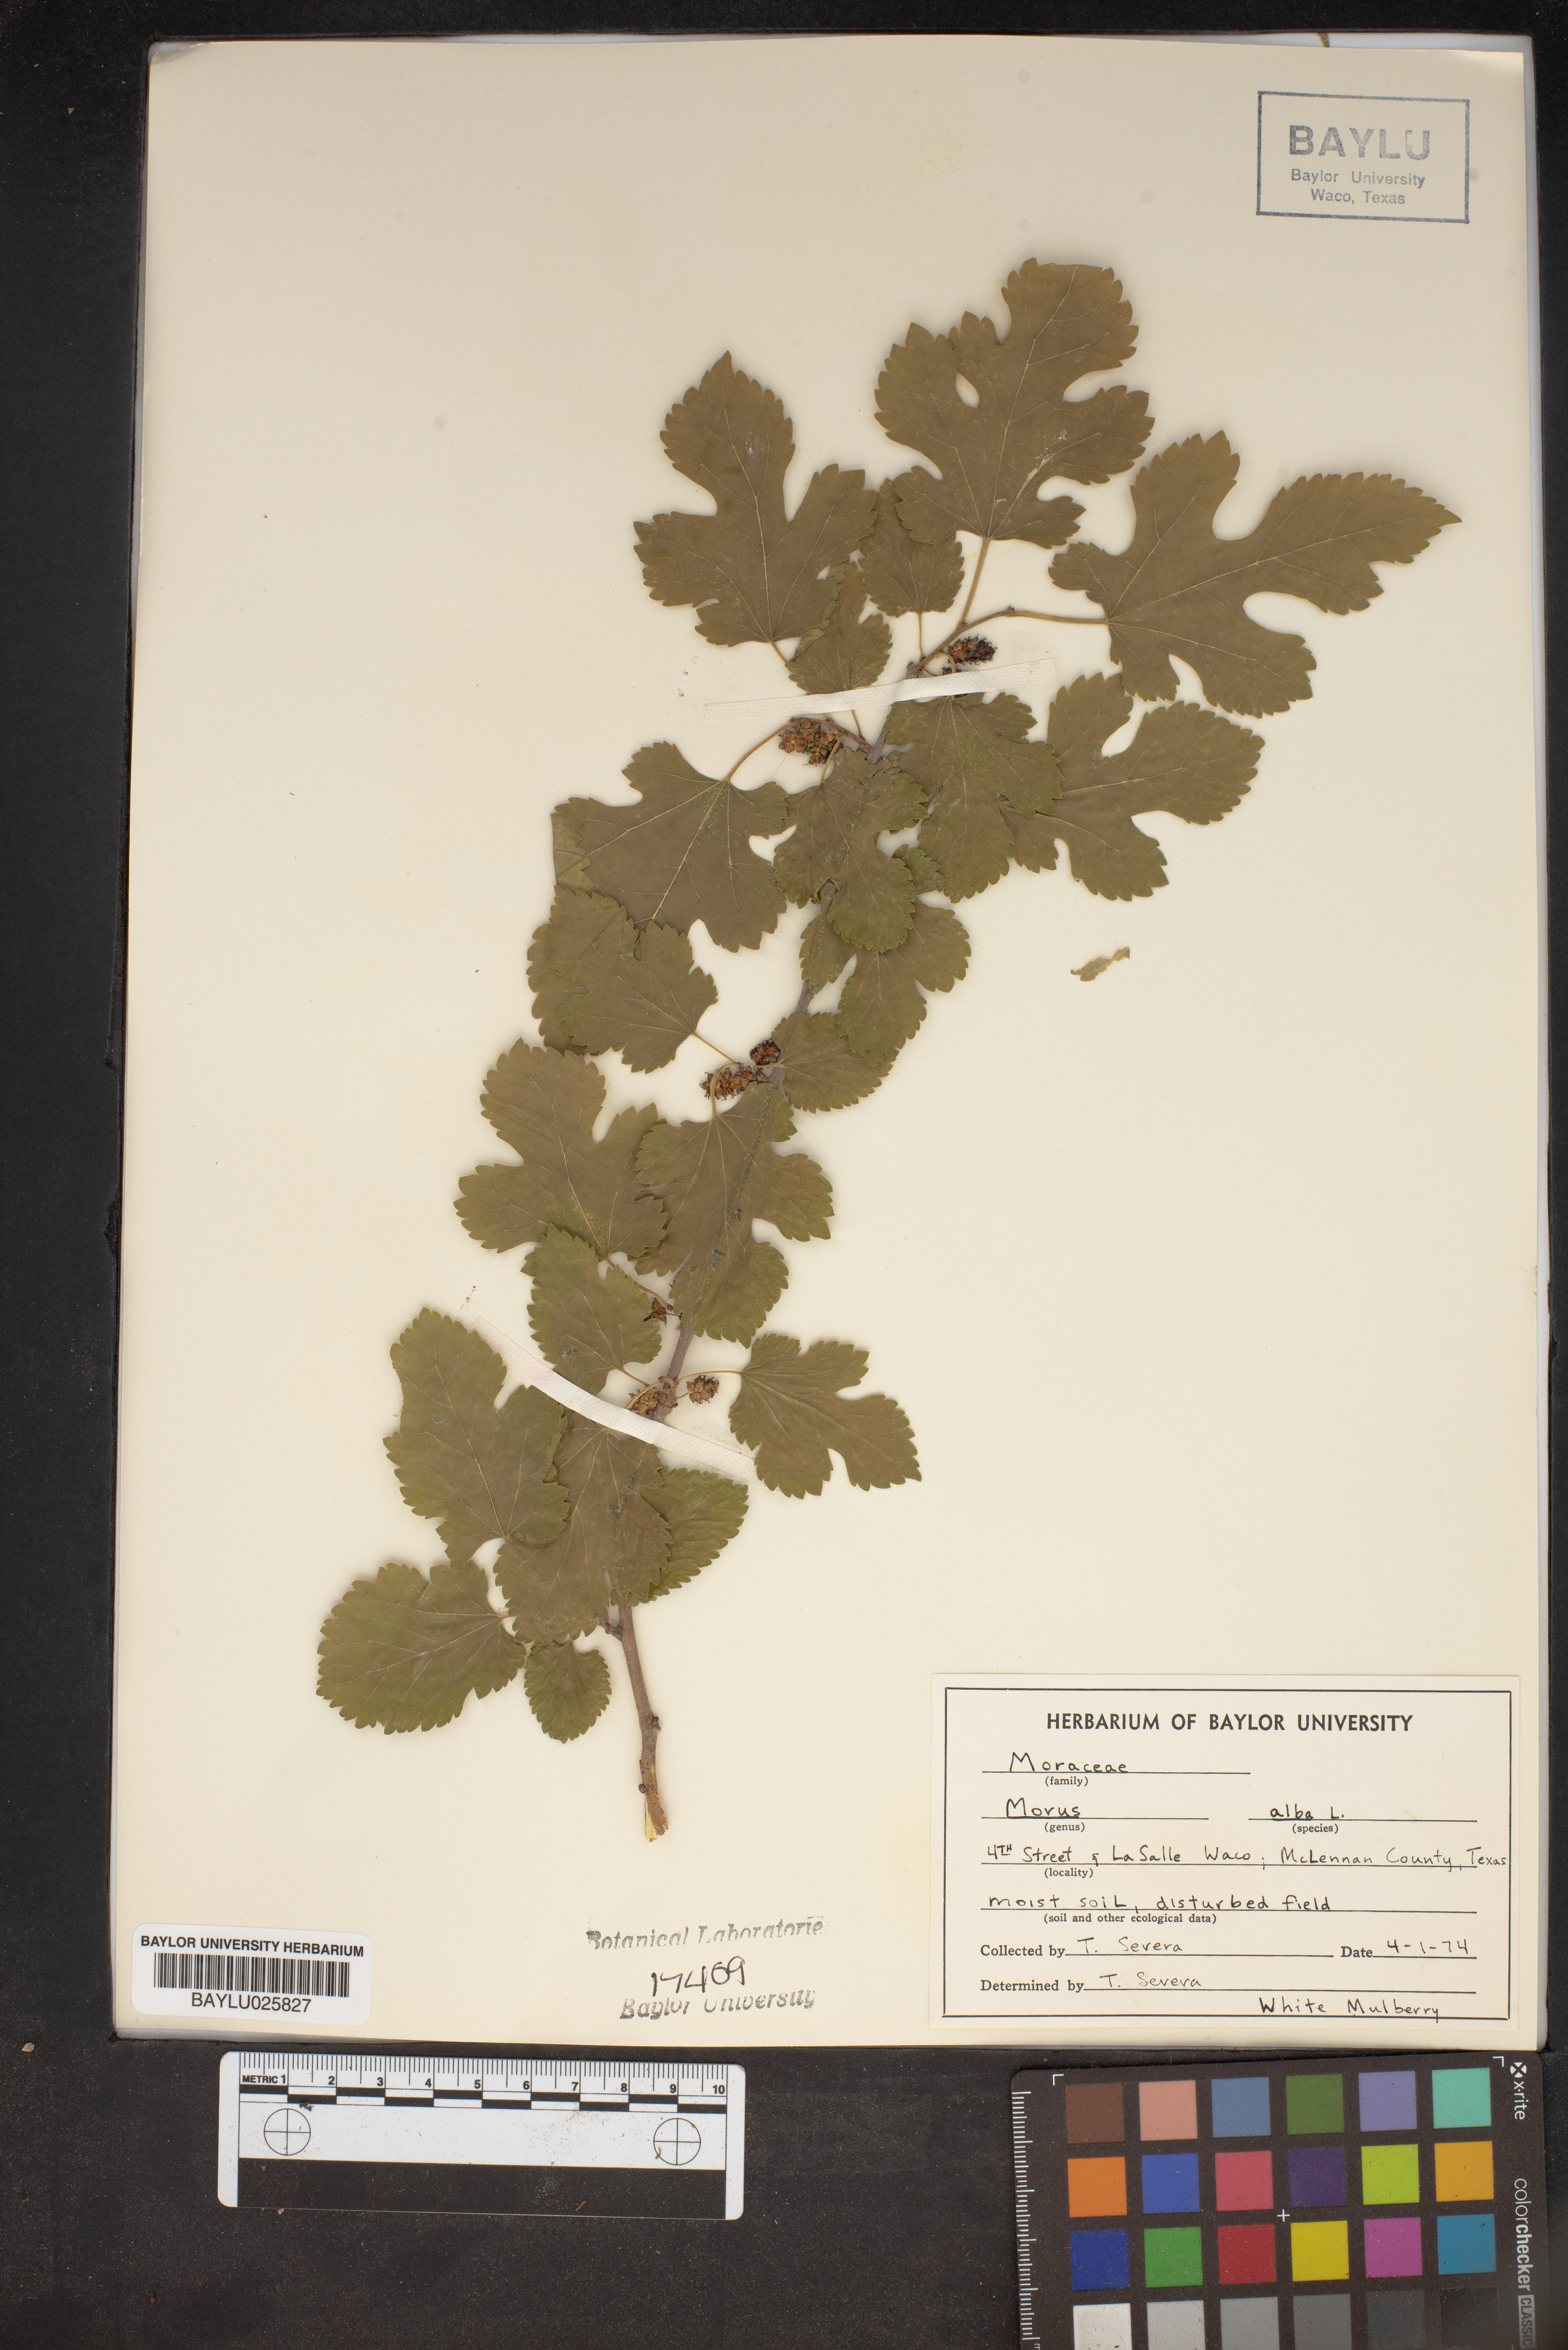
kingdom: Plantae
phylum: Tracheophyta
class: Magnoliopsida
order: Rosales
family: Moraceae
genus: Morus
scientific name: Morus alba
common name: White mulberry
